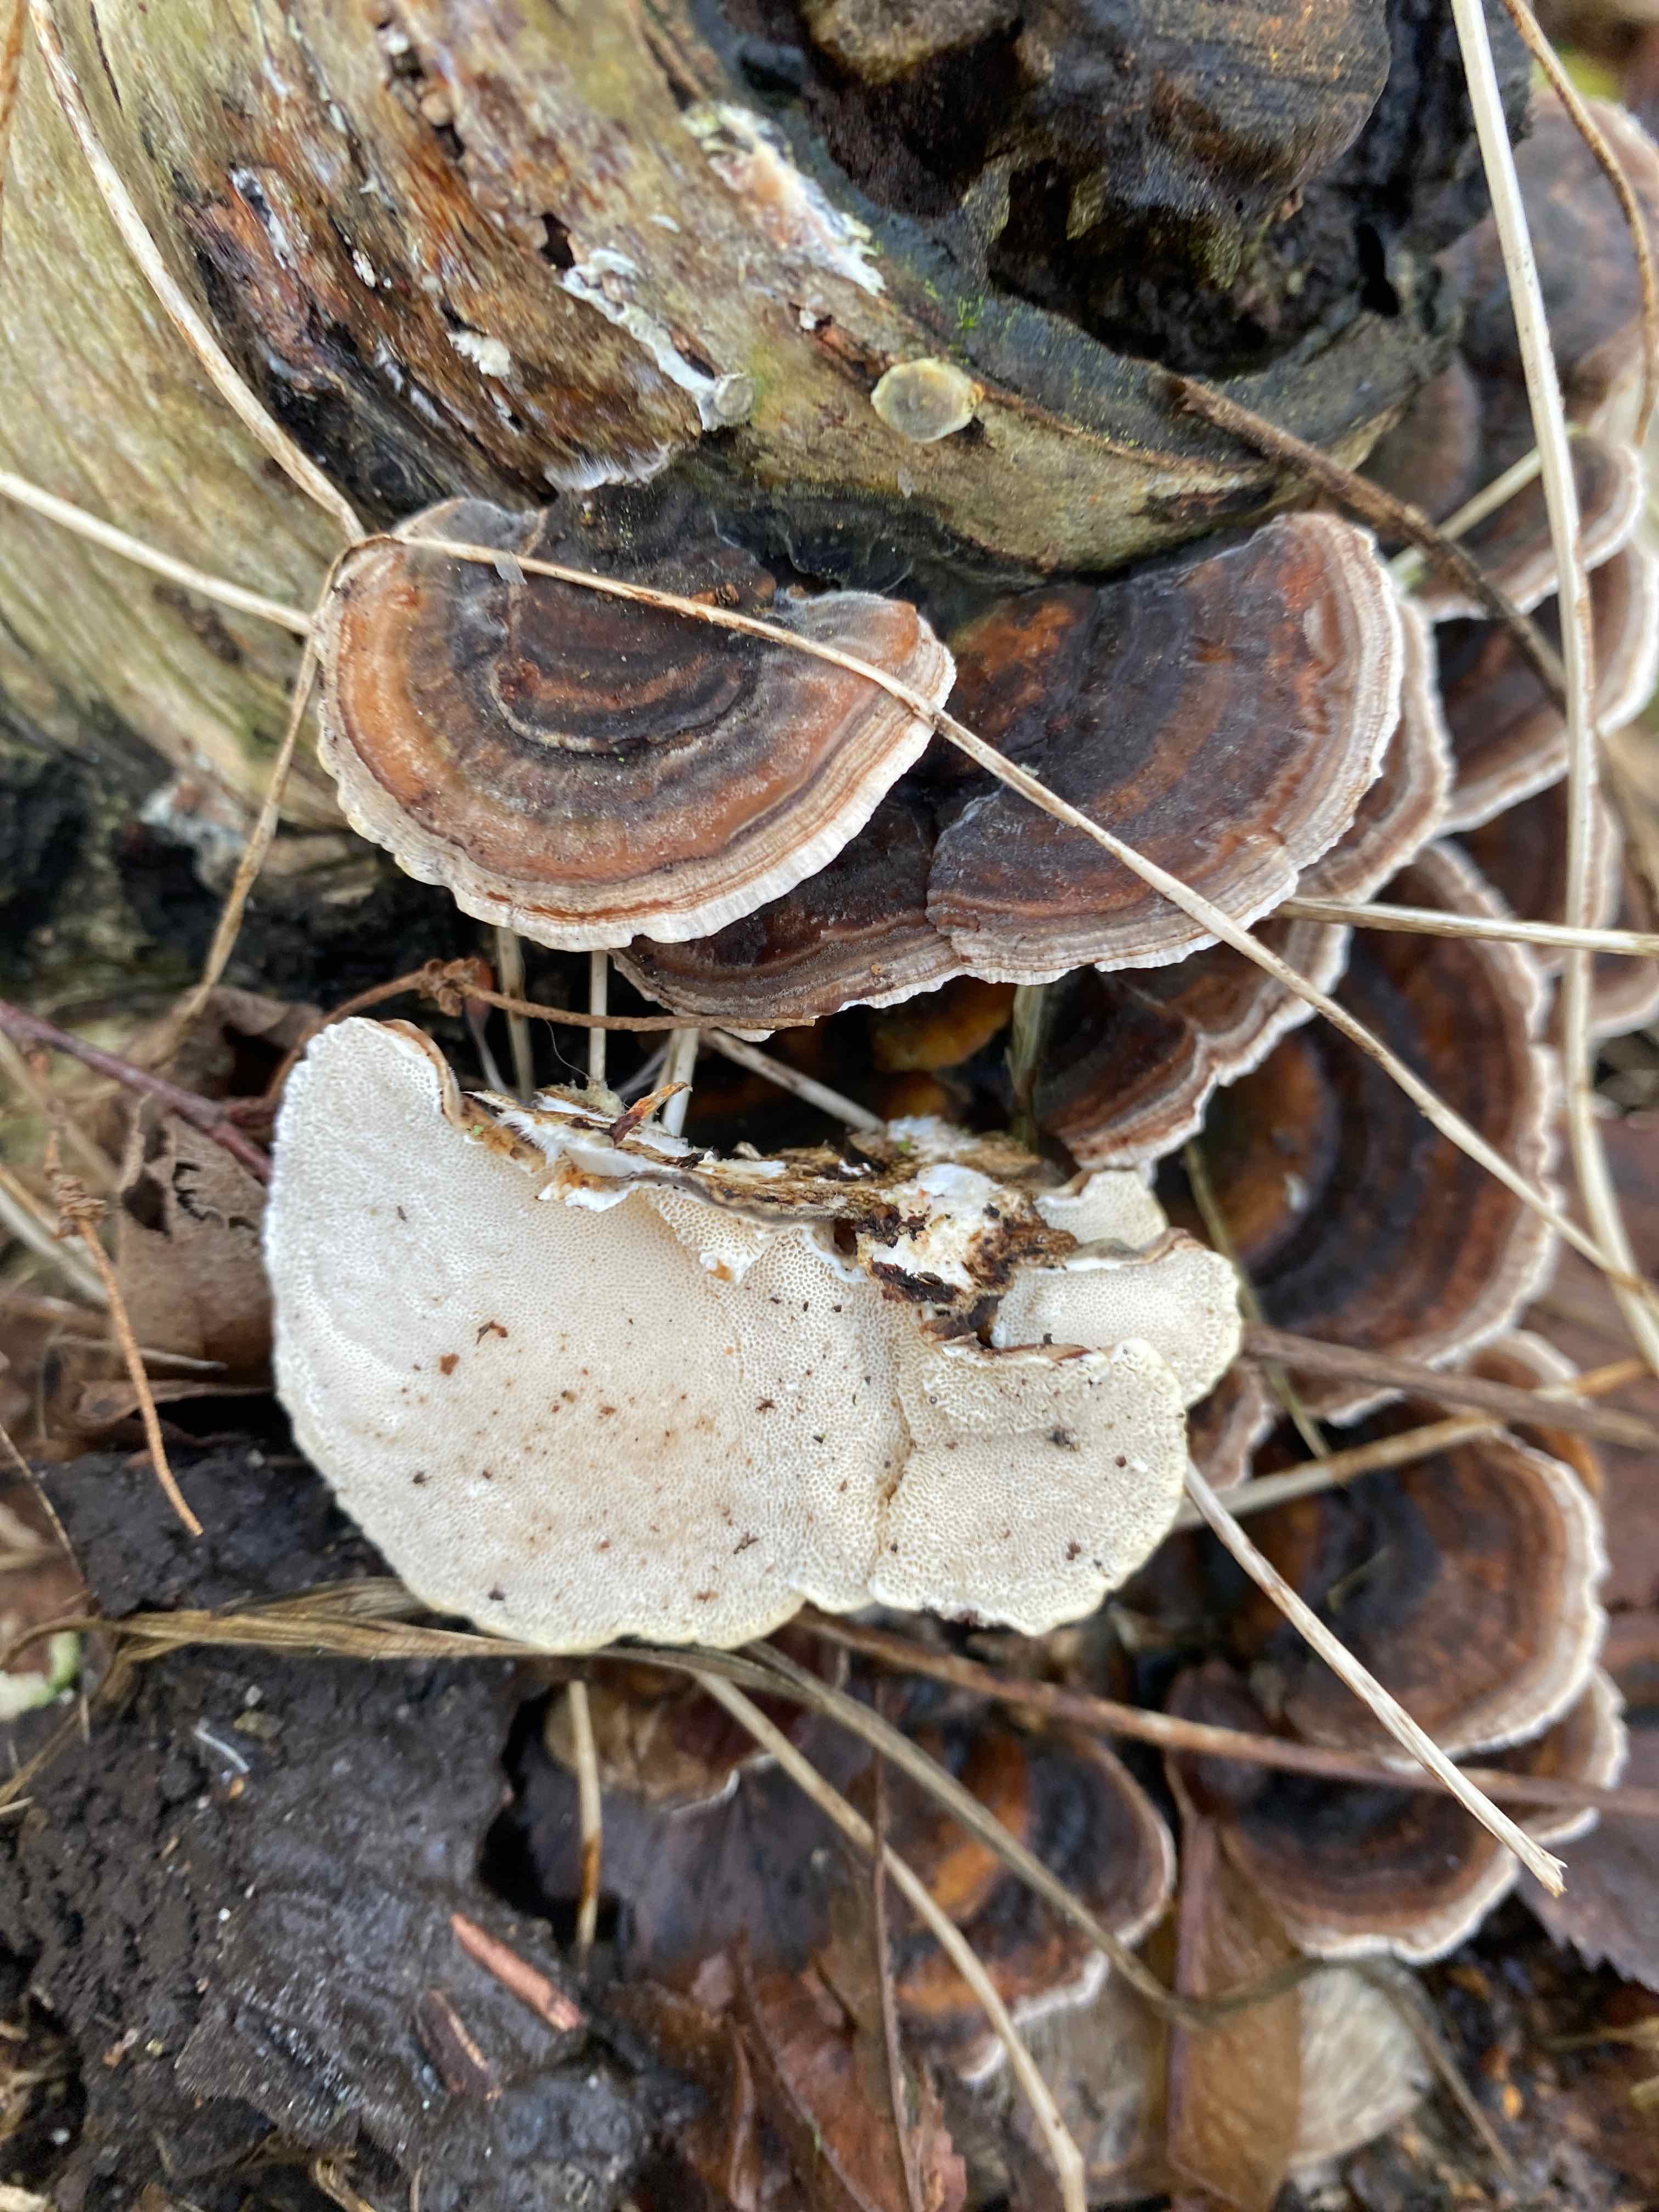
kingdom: Fungi
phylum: Basidiomycota
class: Agaricomycetes
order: Polyporales
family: Polyporaceae
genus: Trametes
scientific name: Trametes versicolor
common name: broget læderporesvamp
